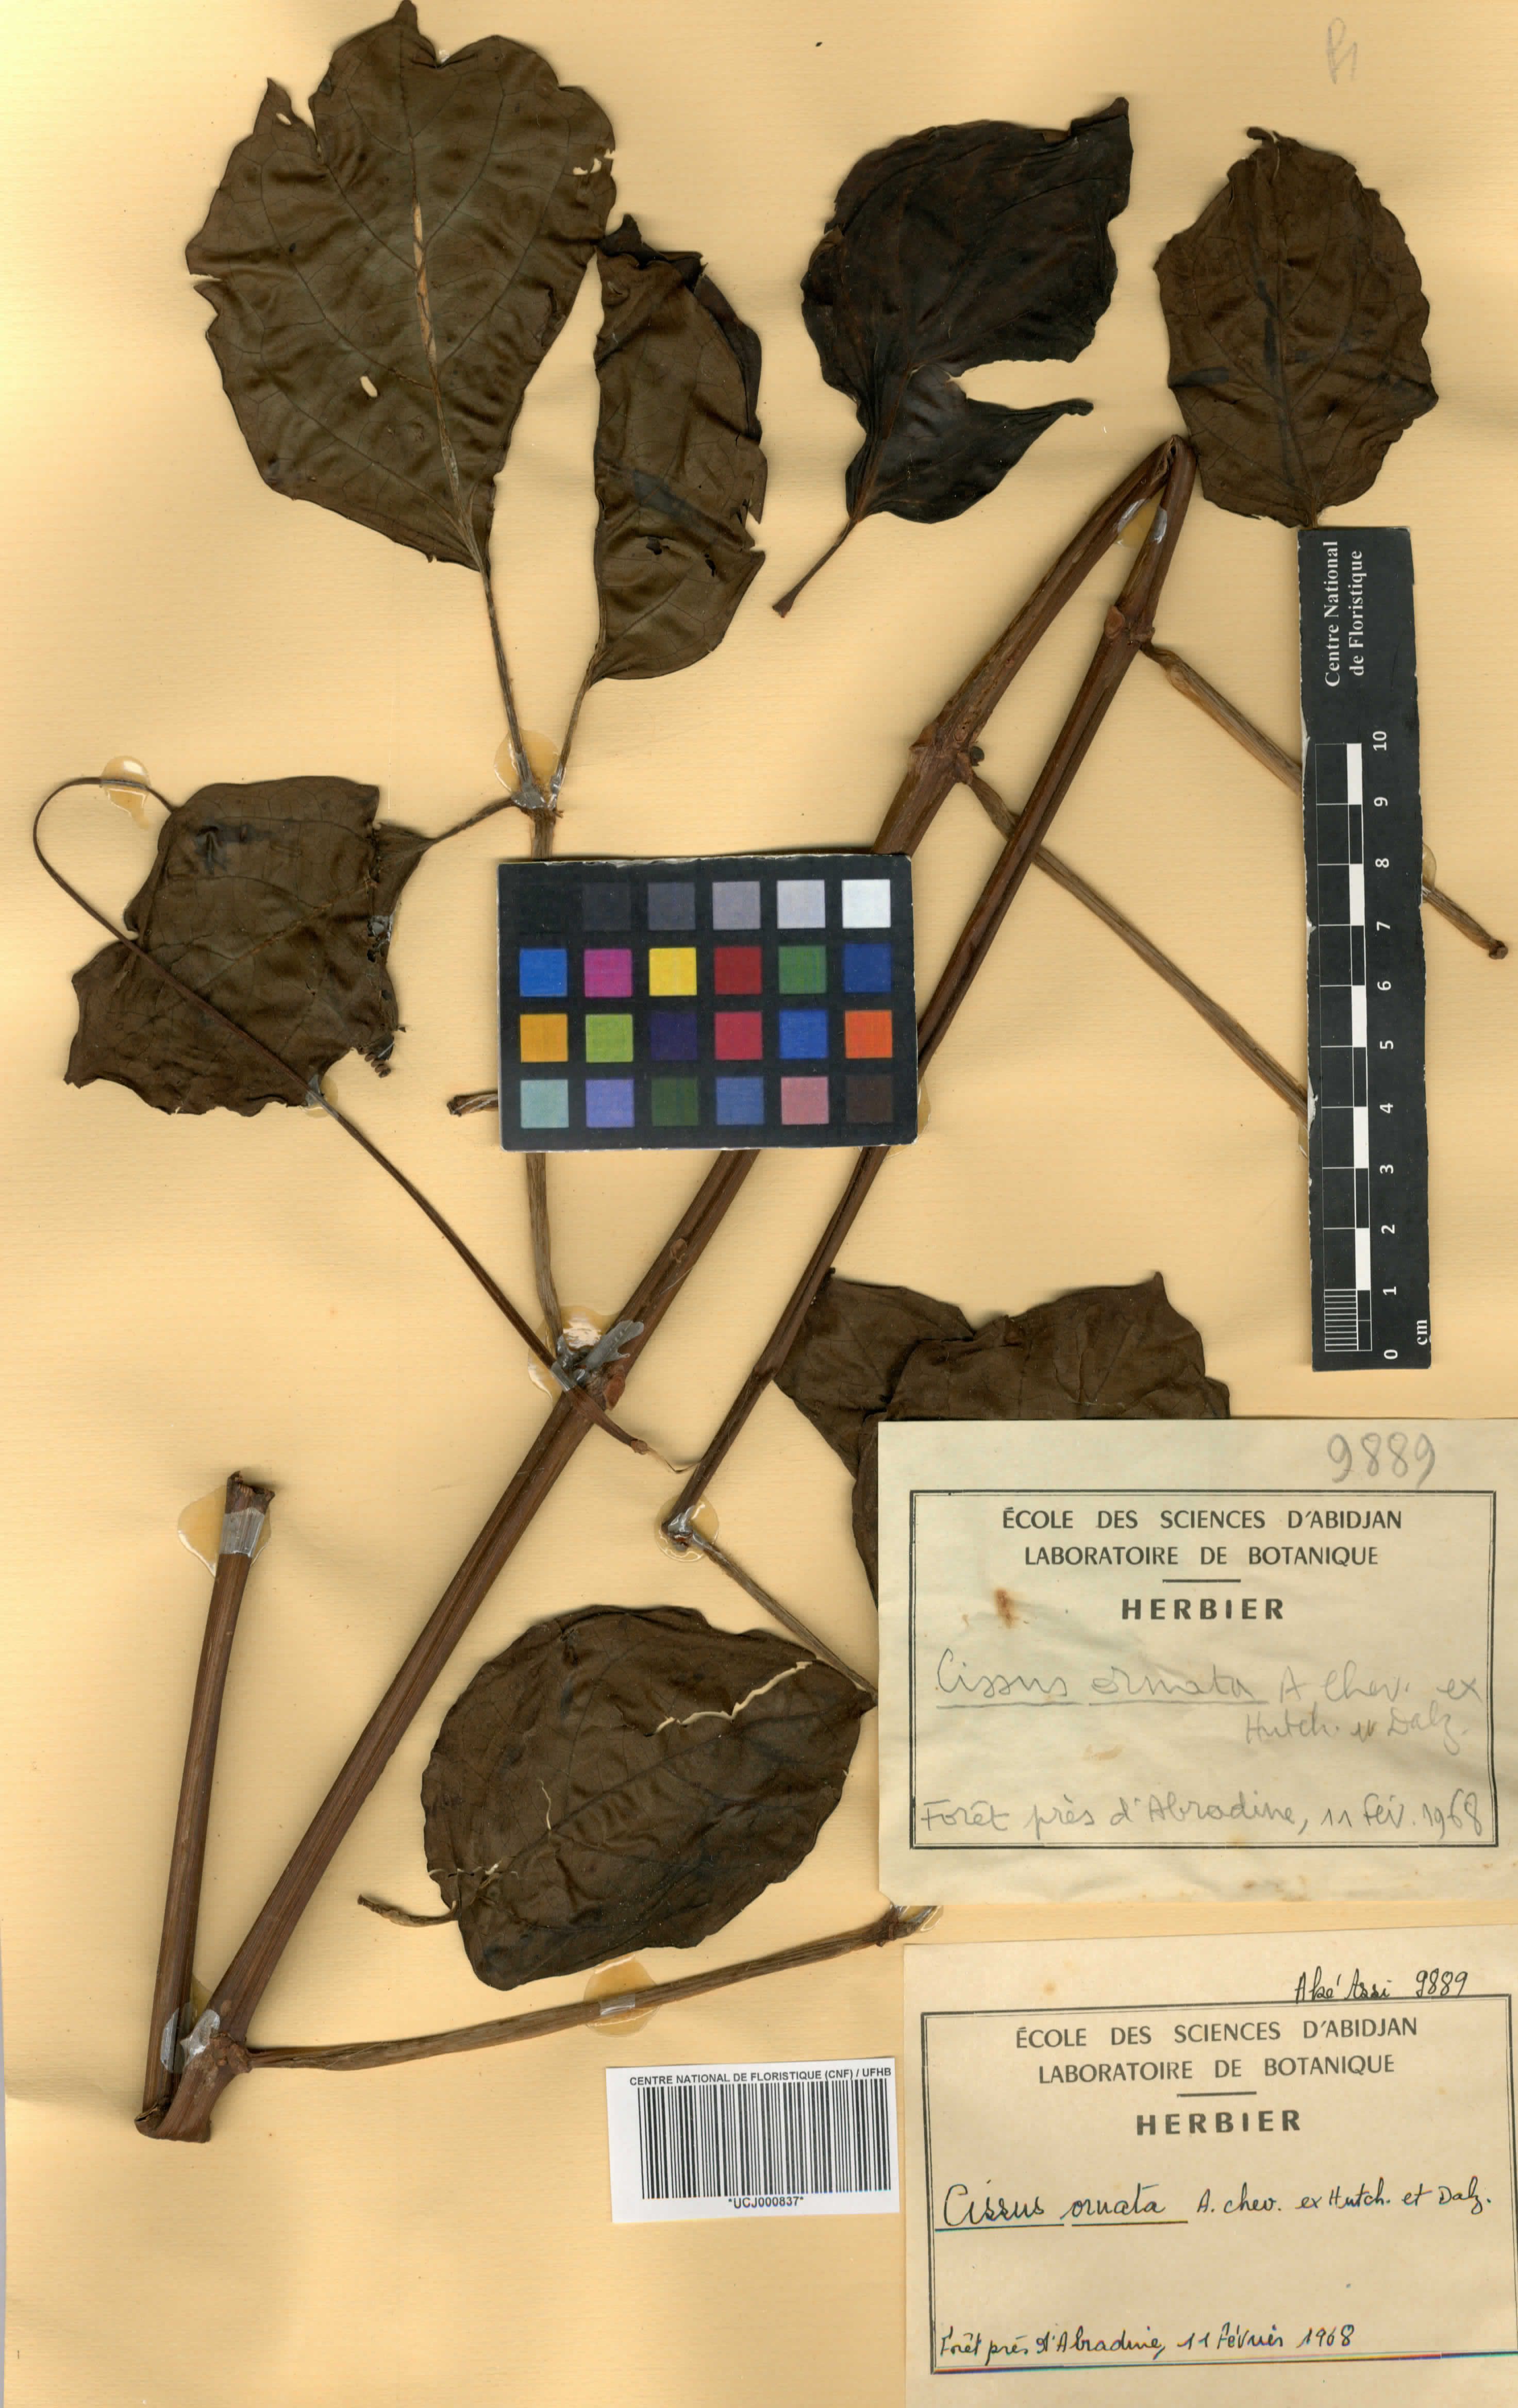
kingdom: Plantae
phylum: Tracheophyta
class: Magnoliopsida
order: Vitales
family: Vitaceae
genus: Cyphostemma
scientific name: Cyphostemma ornatum
